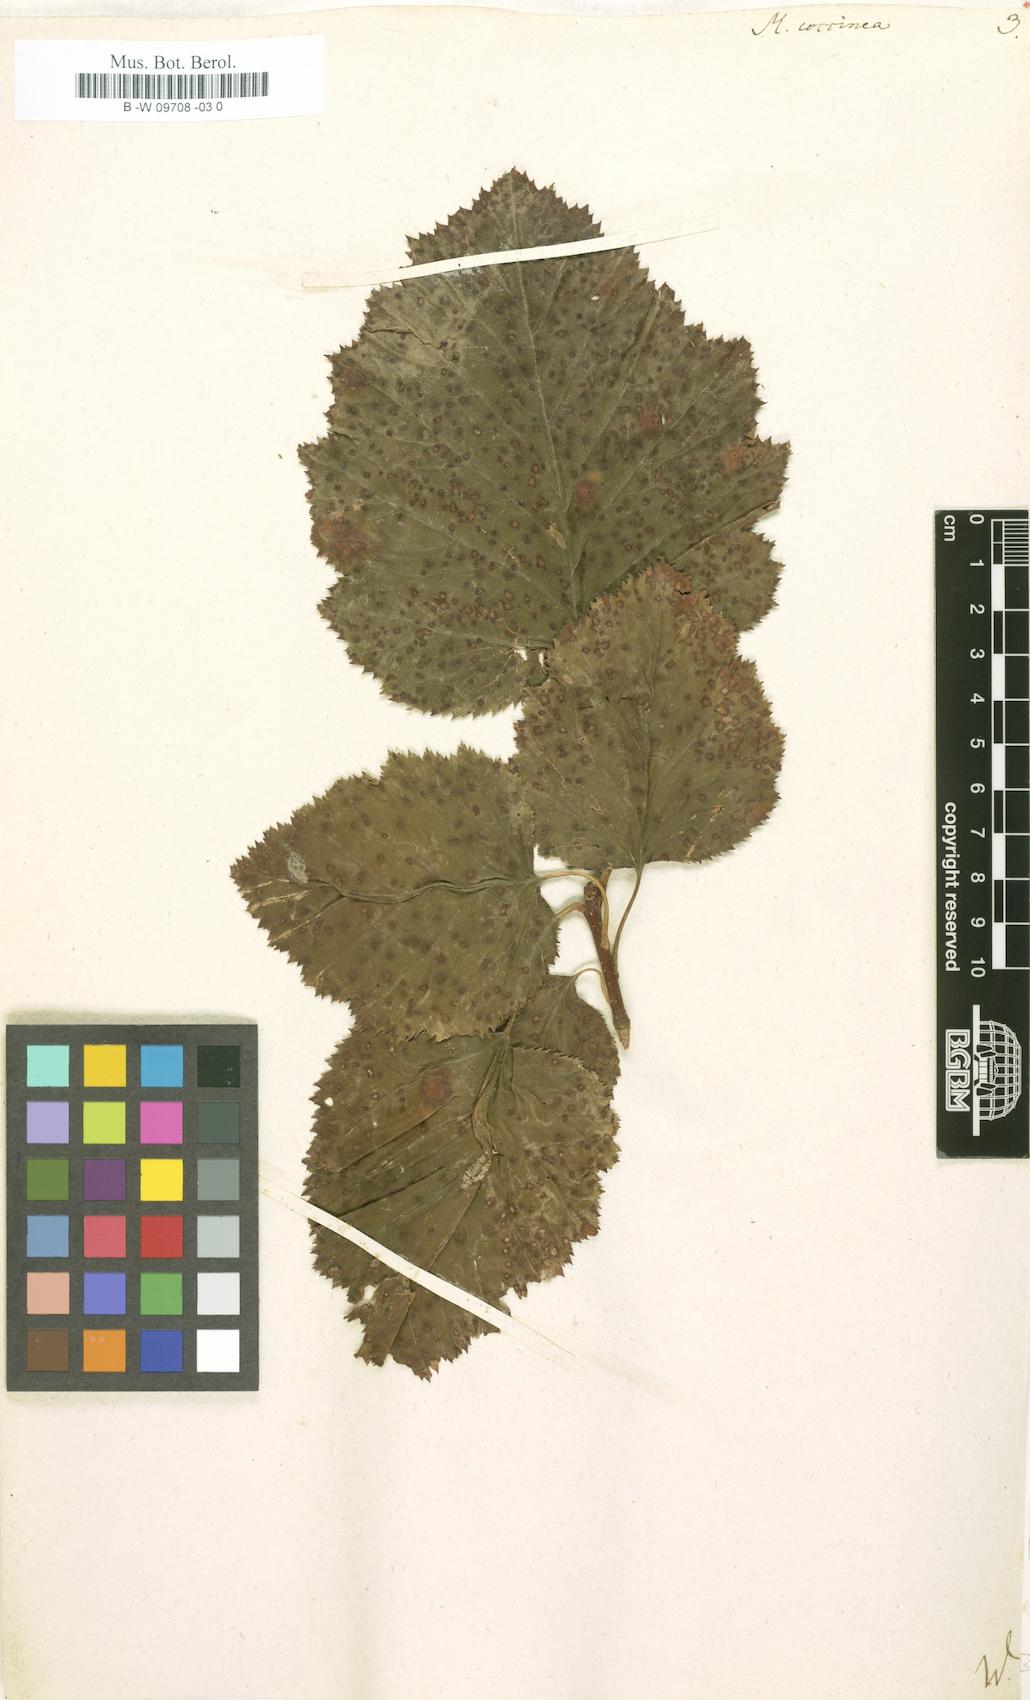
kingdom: Plantae
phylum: Tracheophyta
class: Magnoliopsida
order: Rosales
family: Rosaceae
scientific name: Rosaceae
